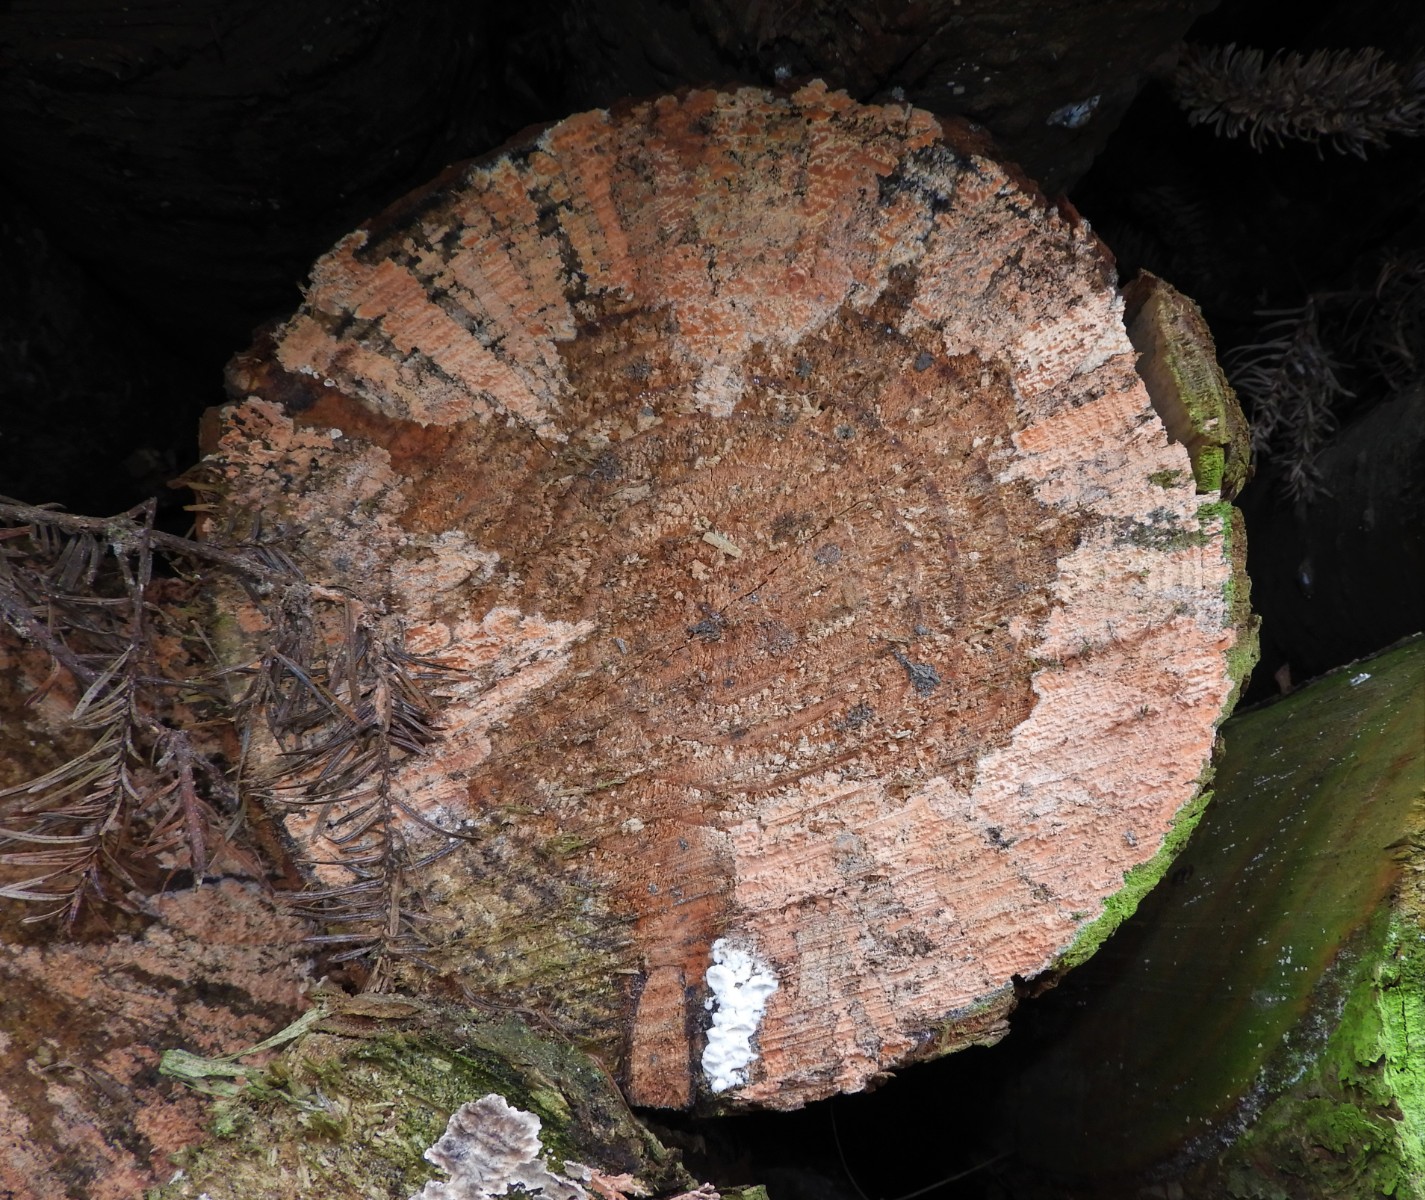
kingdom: Fungi
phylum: Basidiomycota
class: Agaricomycetes
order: Russulales
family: Peniophoraceae
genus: Peniophora
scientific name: Peniophora incarnata
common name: laksefarvet voksskind
